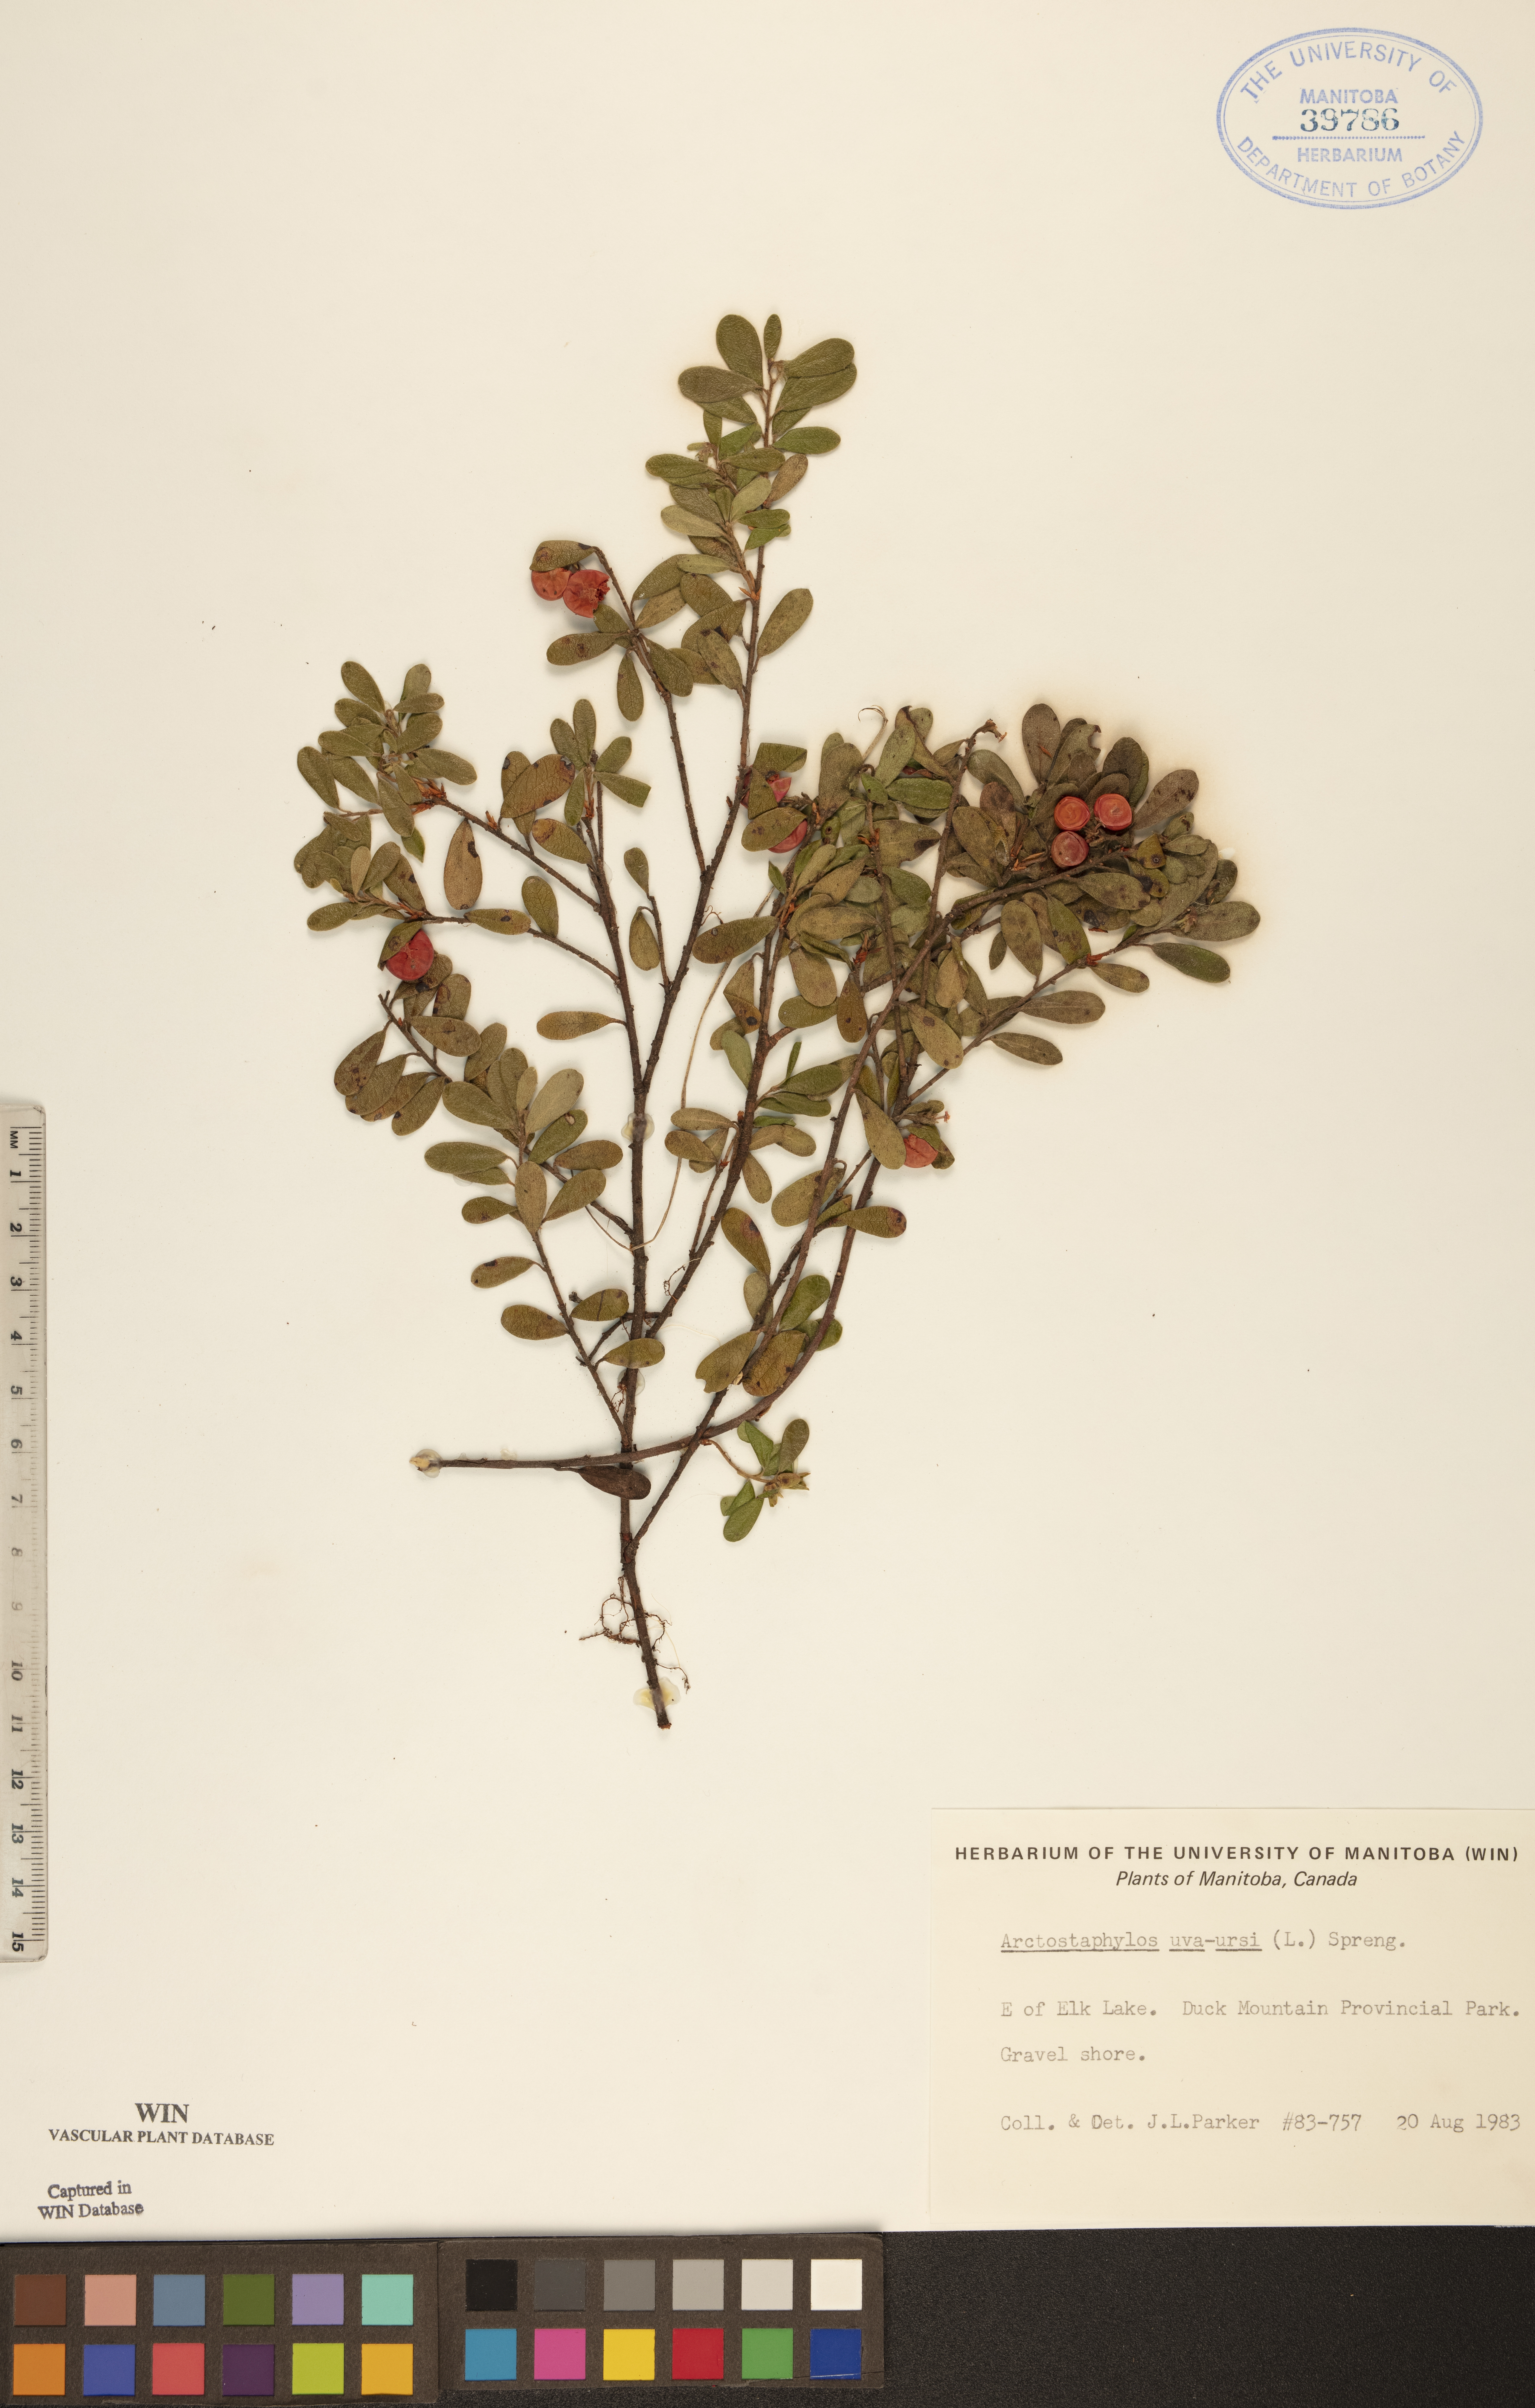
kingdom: Plantae
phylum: Tracheophyta
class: Magnoliopsida
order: Ericales
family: Ericaceae
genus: Arctostaphylos
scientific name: Arctostaphylos uva-ursi
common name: Bearberry
